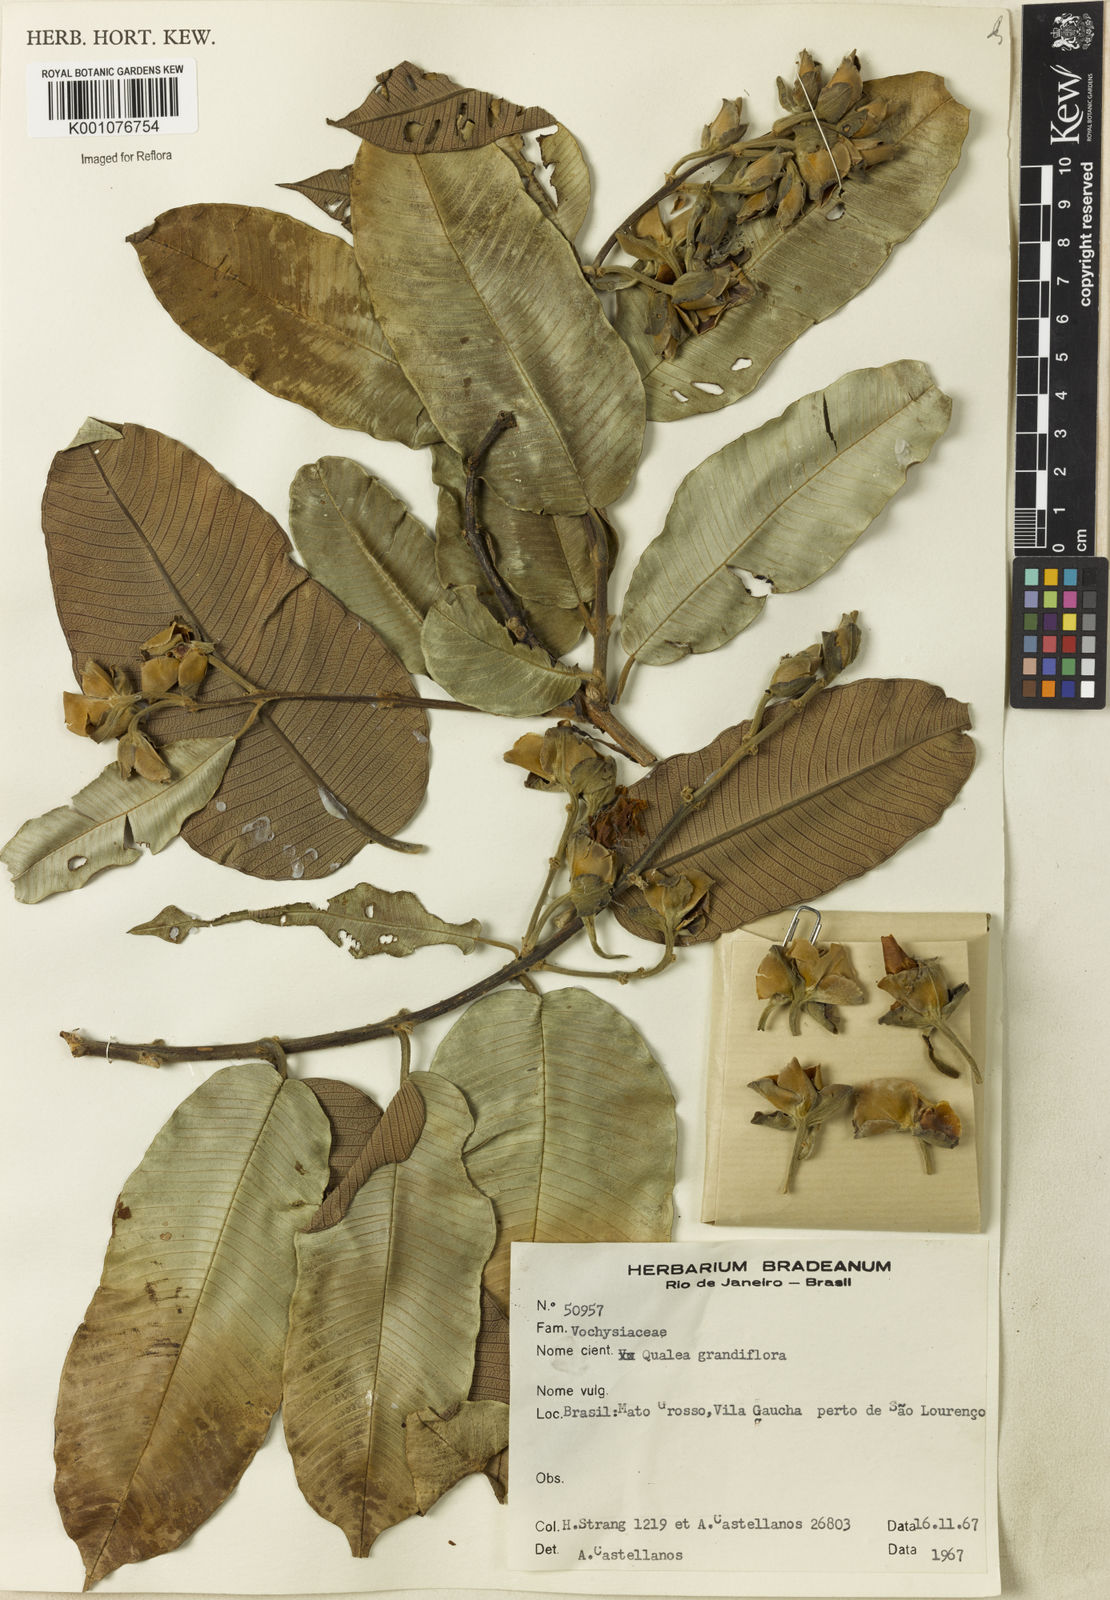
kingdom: Plantae
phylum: Tracheophyta
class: Magnoliopsida
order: Myrtales
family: Vochysiaceae
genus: Qualea
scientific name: Qualea grandiflora
